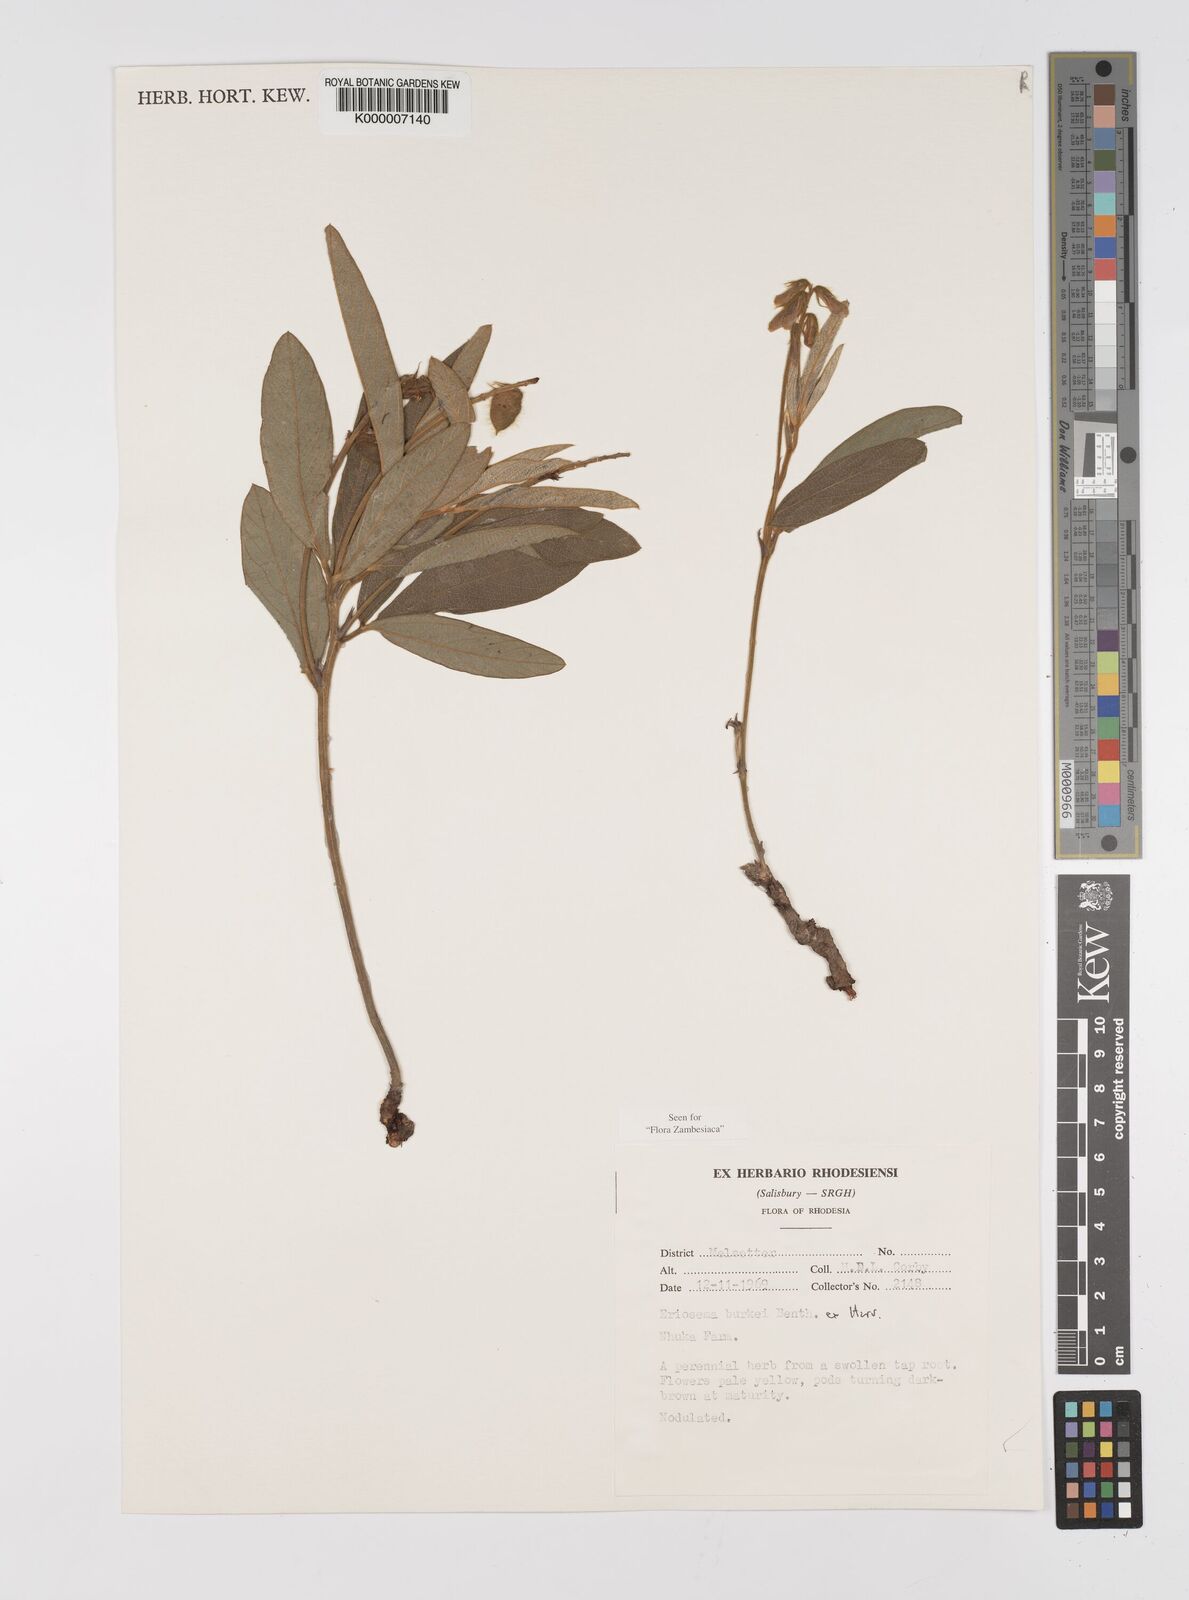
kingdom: Plantae
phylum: Tracheophyta
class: Magnoliopsida
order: Fabales
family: Fabaceae
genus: Eriosema
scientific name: Eriosema burkei
